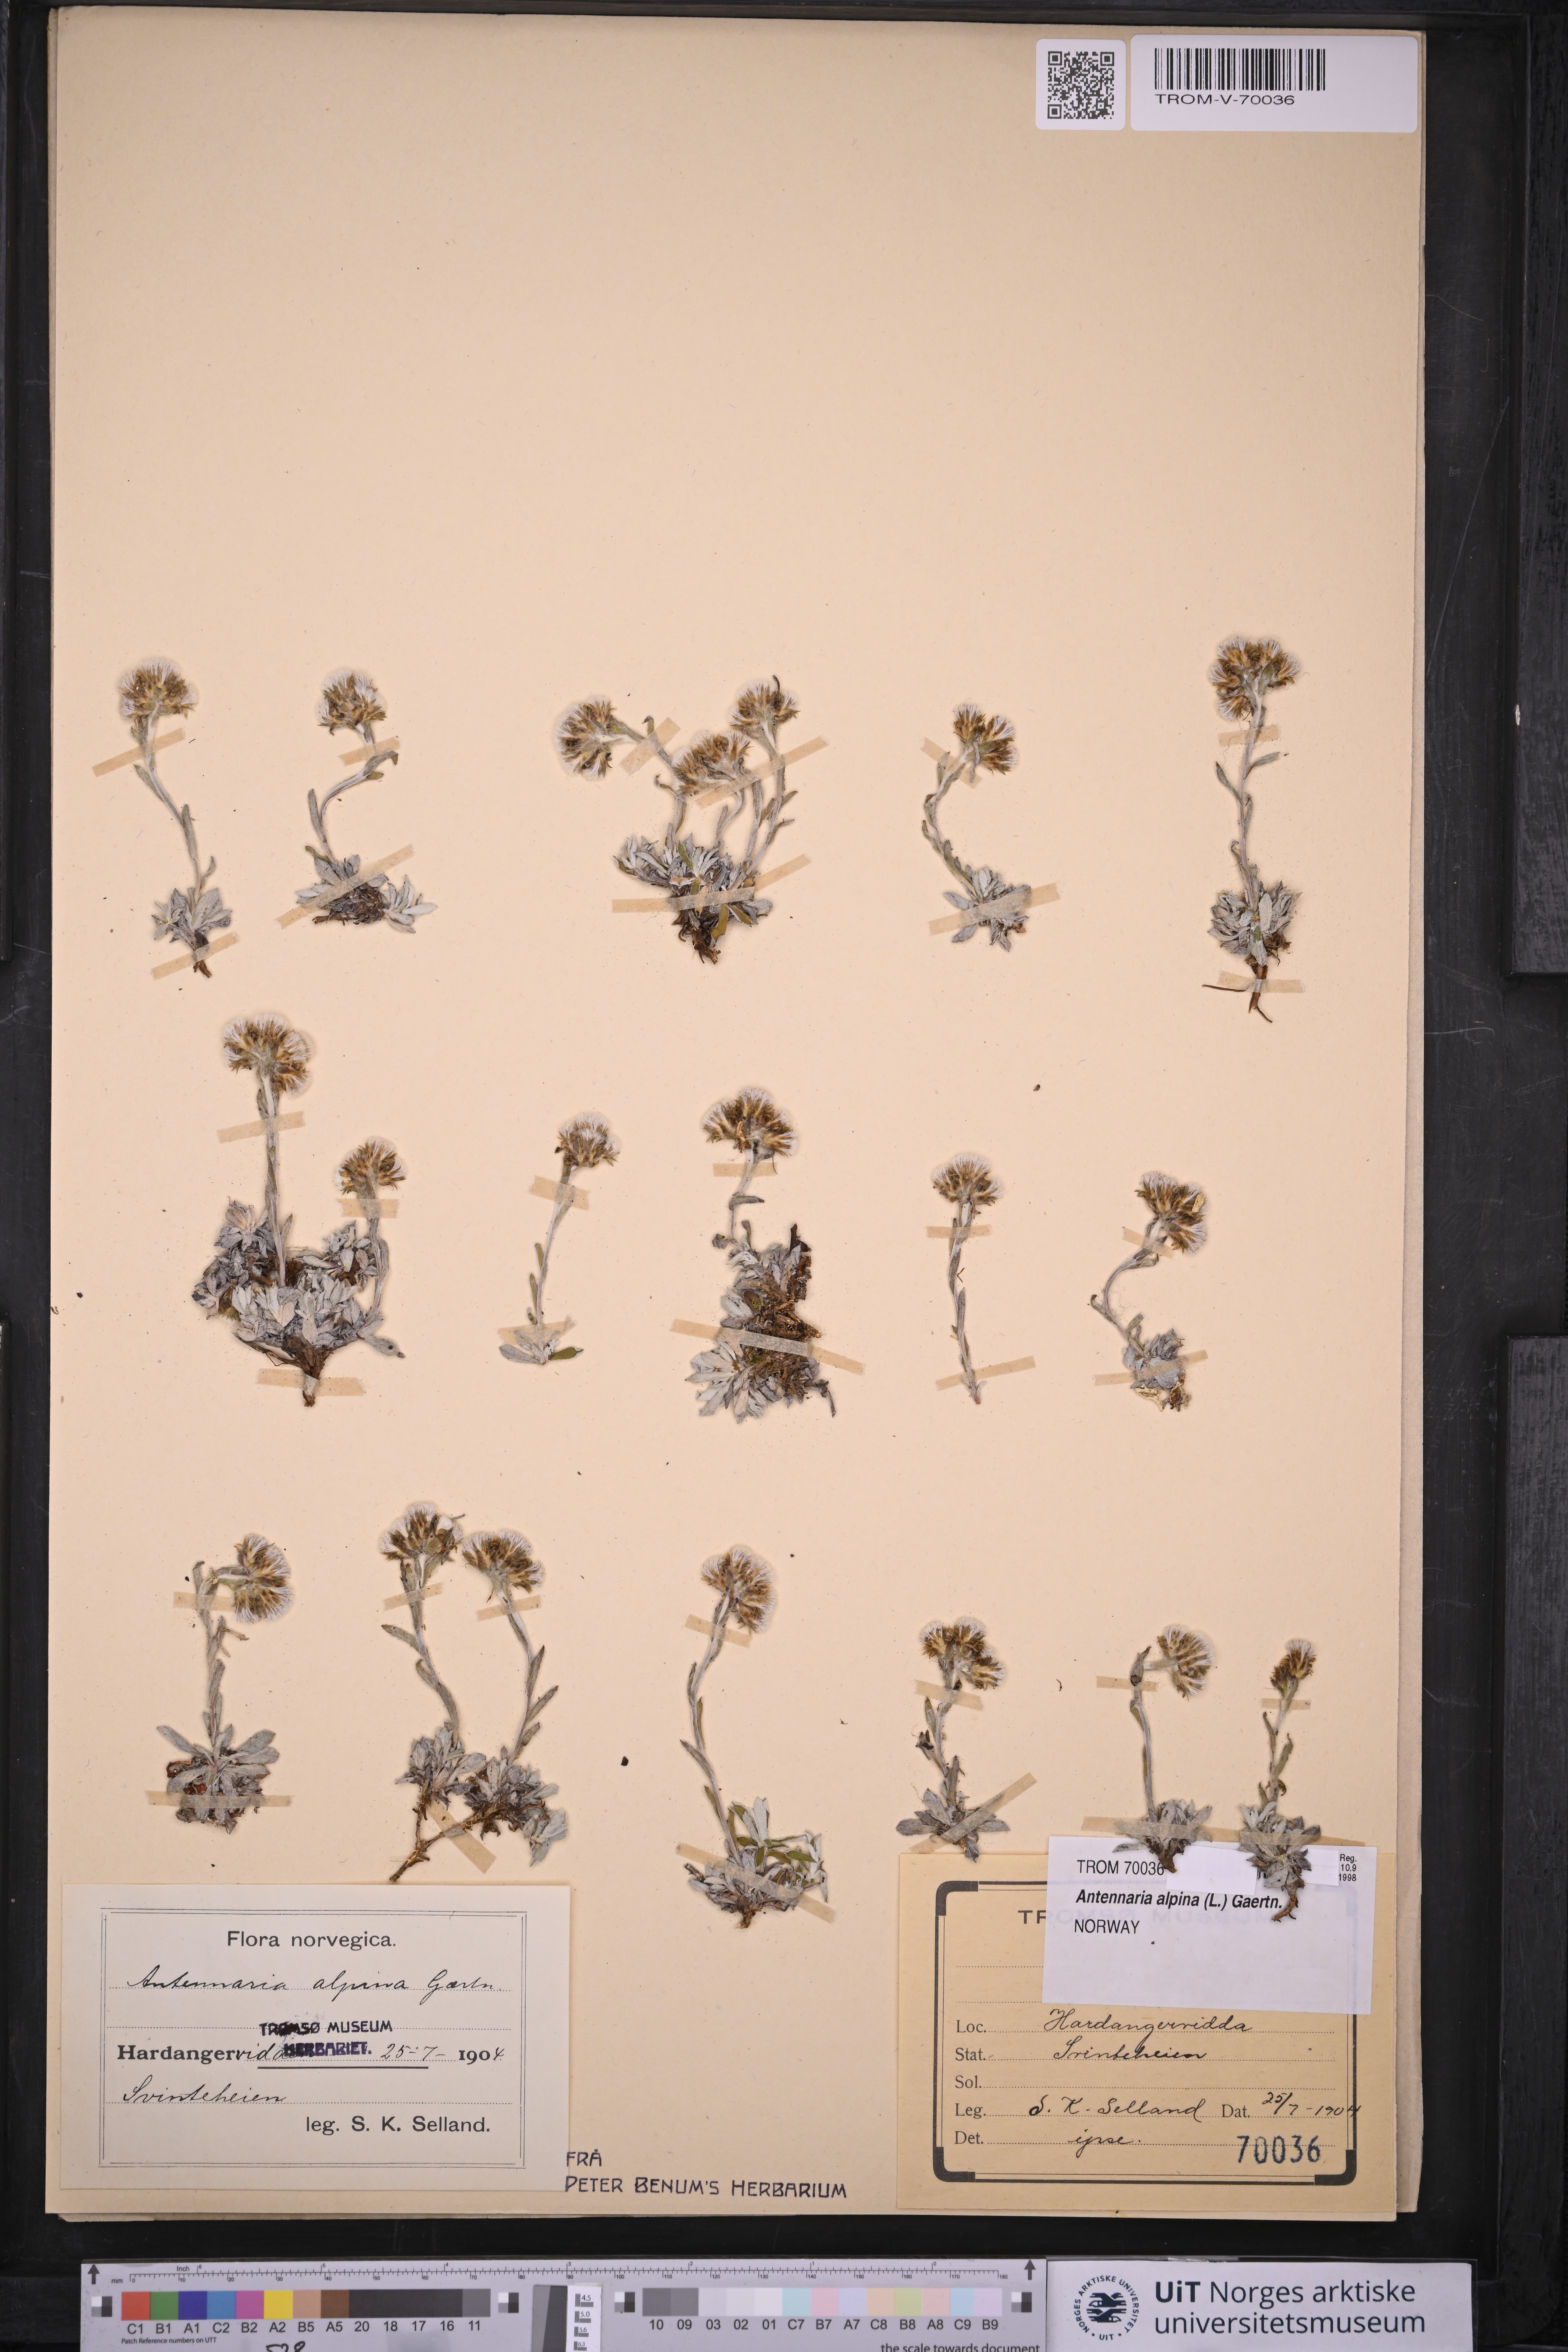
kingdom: Plantae
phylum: Tracheophyta
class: Magnoliopsida
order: Asterales
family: Asteraceae
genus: Antennaria
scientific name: Antennaria alpina
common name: Alpine pussytoes
